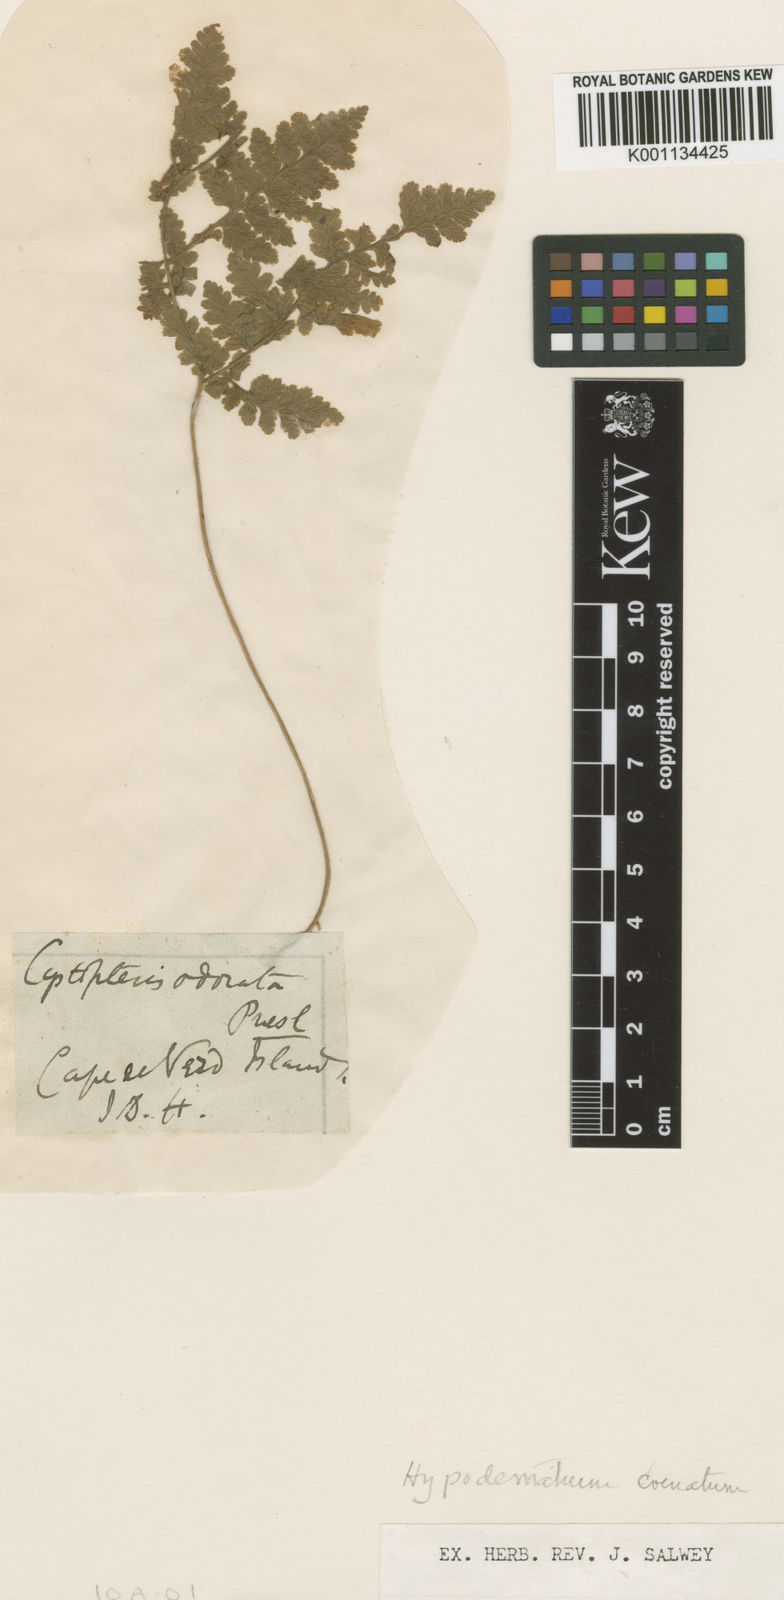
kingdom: Plantae
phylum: Tracheophyta
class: Polypodiopsida
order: Polypodiales
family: Hypodematiaceae
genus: Hypodematium
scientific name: Hypodematium chrysolepis
